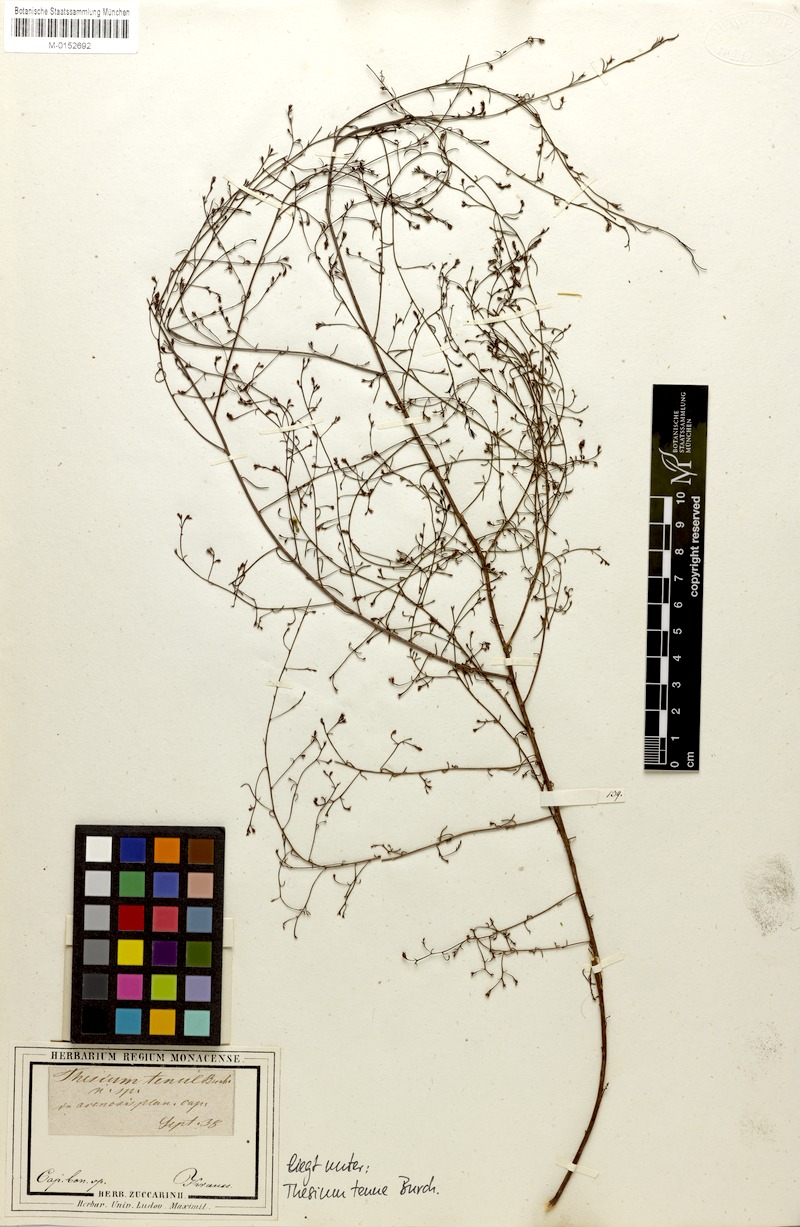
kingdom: Plantae
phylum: Tracheophyta
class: Magnoliopsida
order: Santalales
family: Thesiaceae
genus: Thesium
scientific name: Thesium juncifolium
